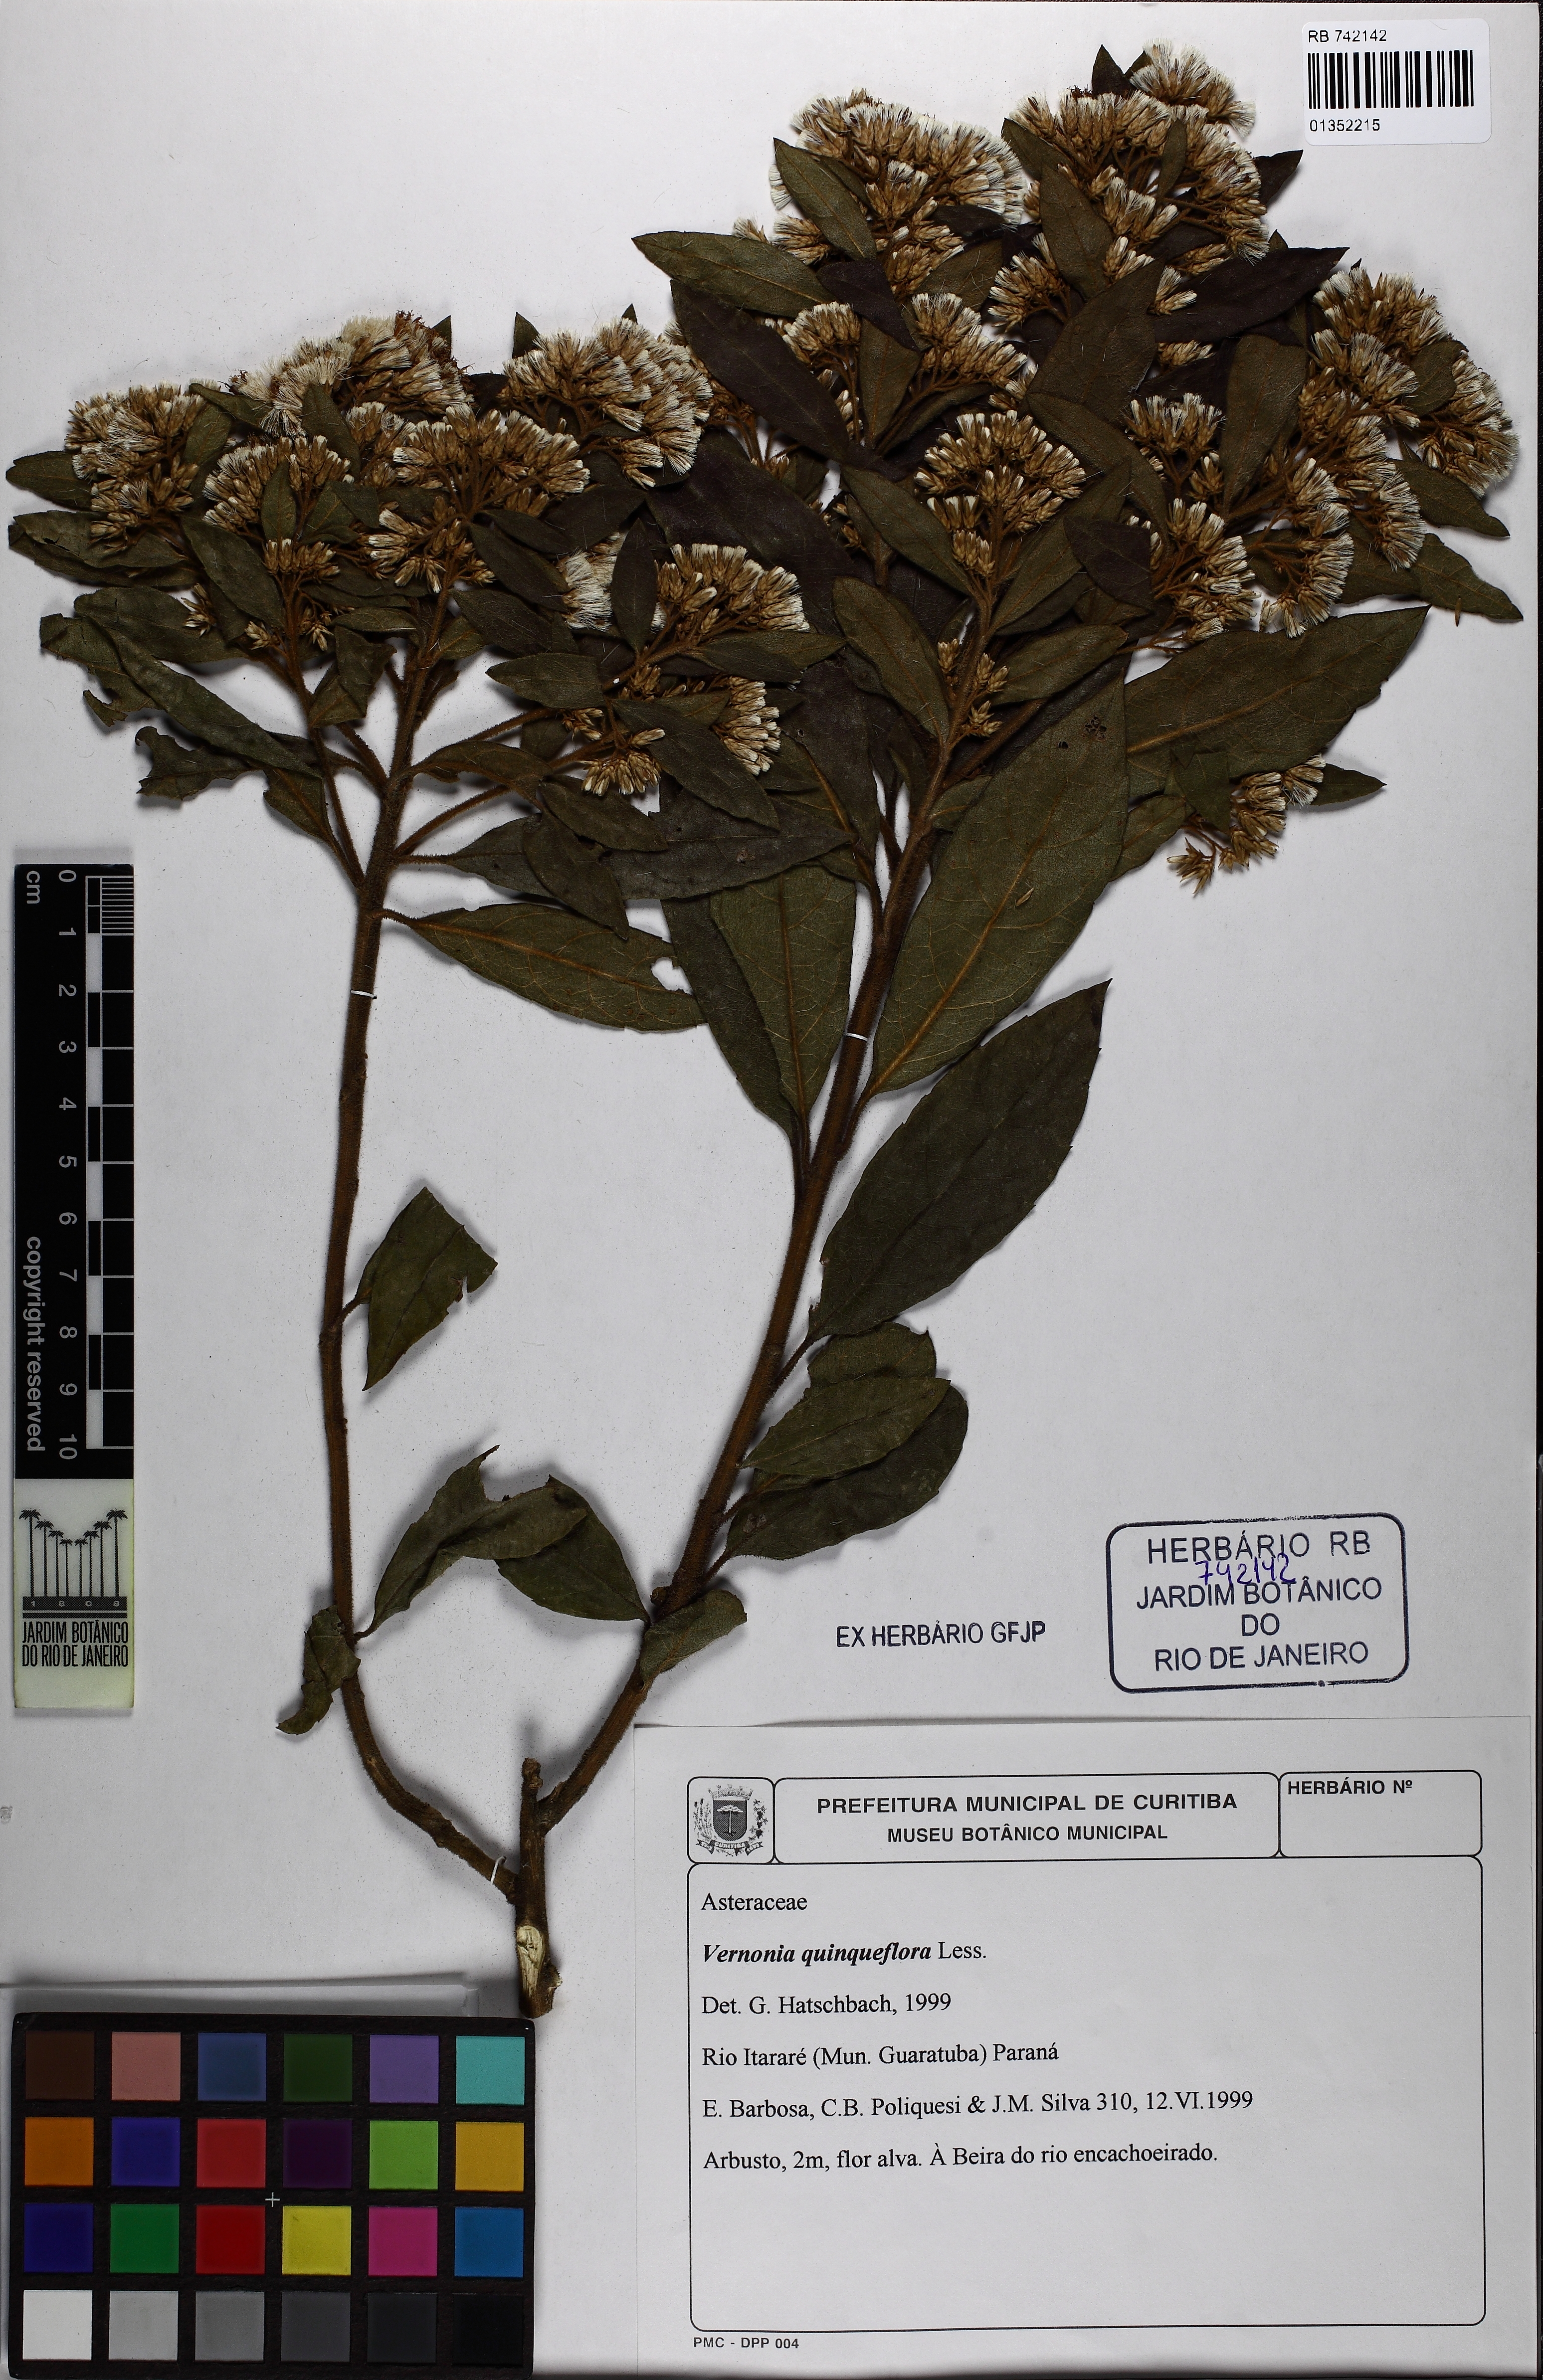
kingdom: Plantae
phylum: Tracheophyta
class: Magnoliopsida
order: Asterales
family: Asteraceae
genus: Critoniopsis
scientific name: Critoniopsis quinqueflora
